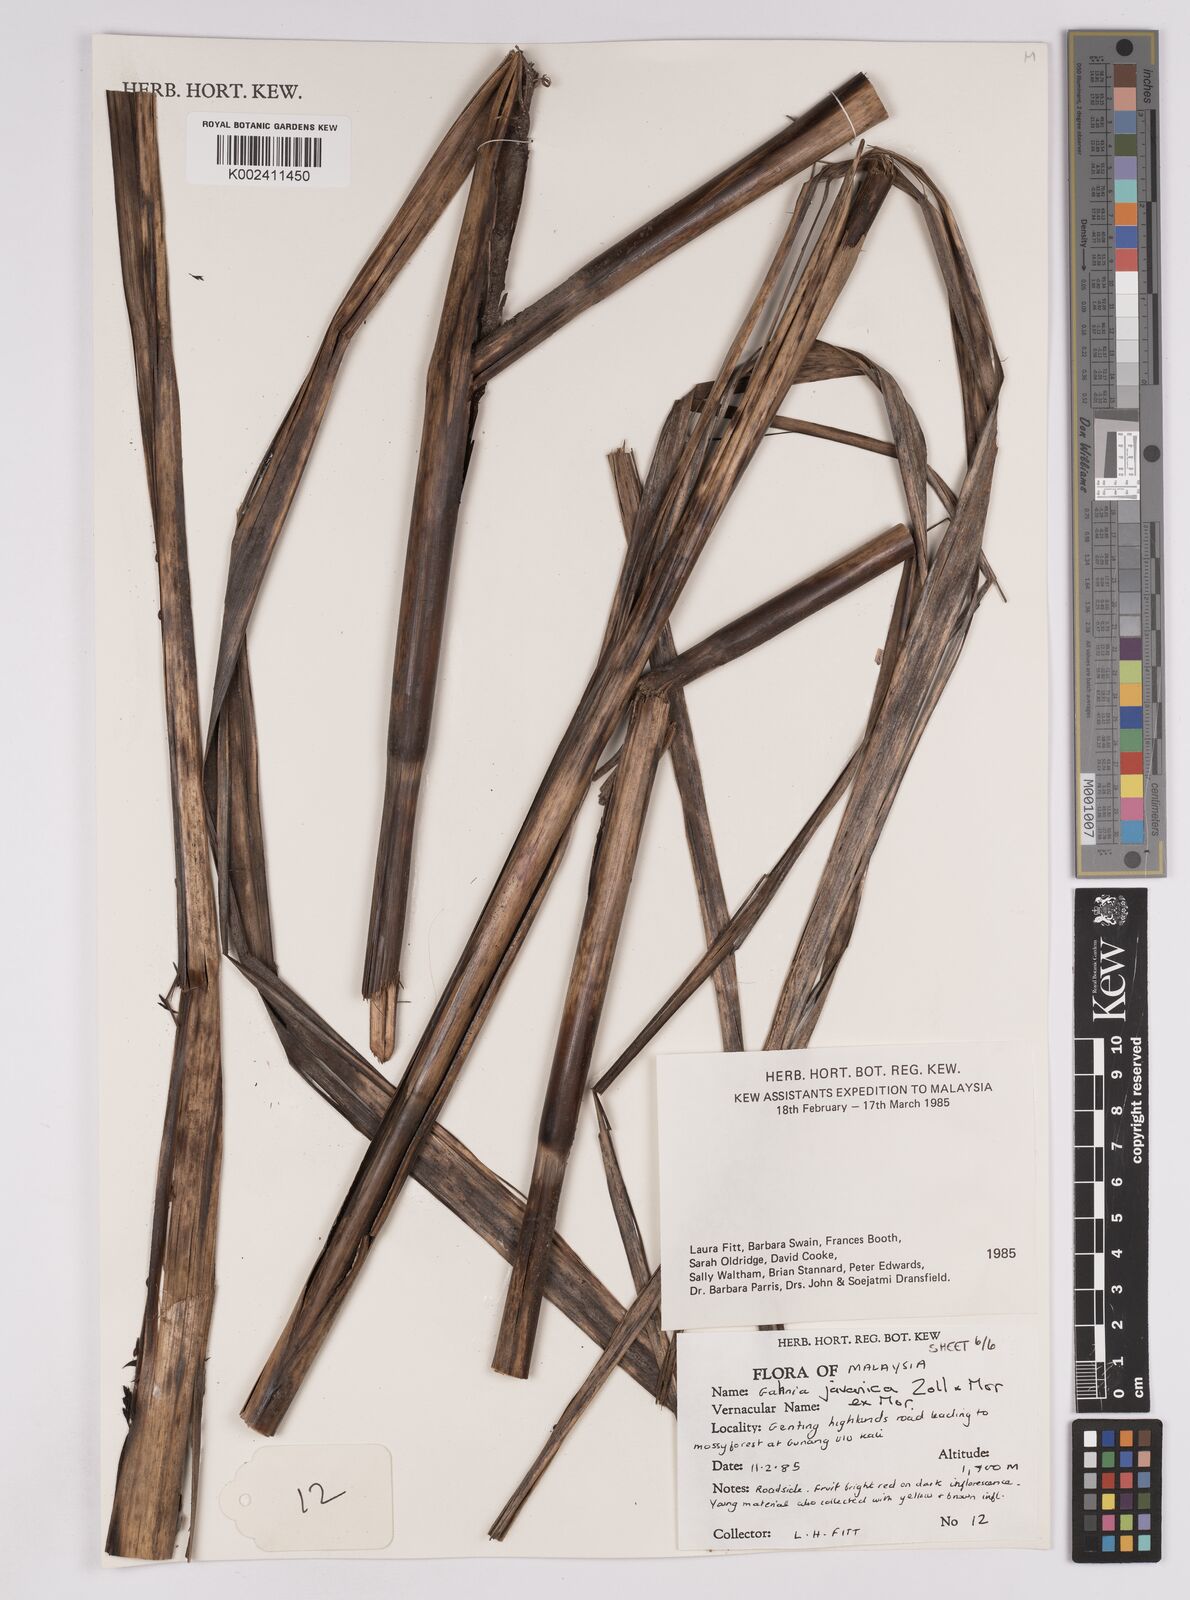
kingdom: Plantae
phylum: Tracheophyta
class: Liliopsida
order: Poales
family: Cyperaceae
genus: Gahnia
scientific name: Gahnia javanica
